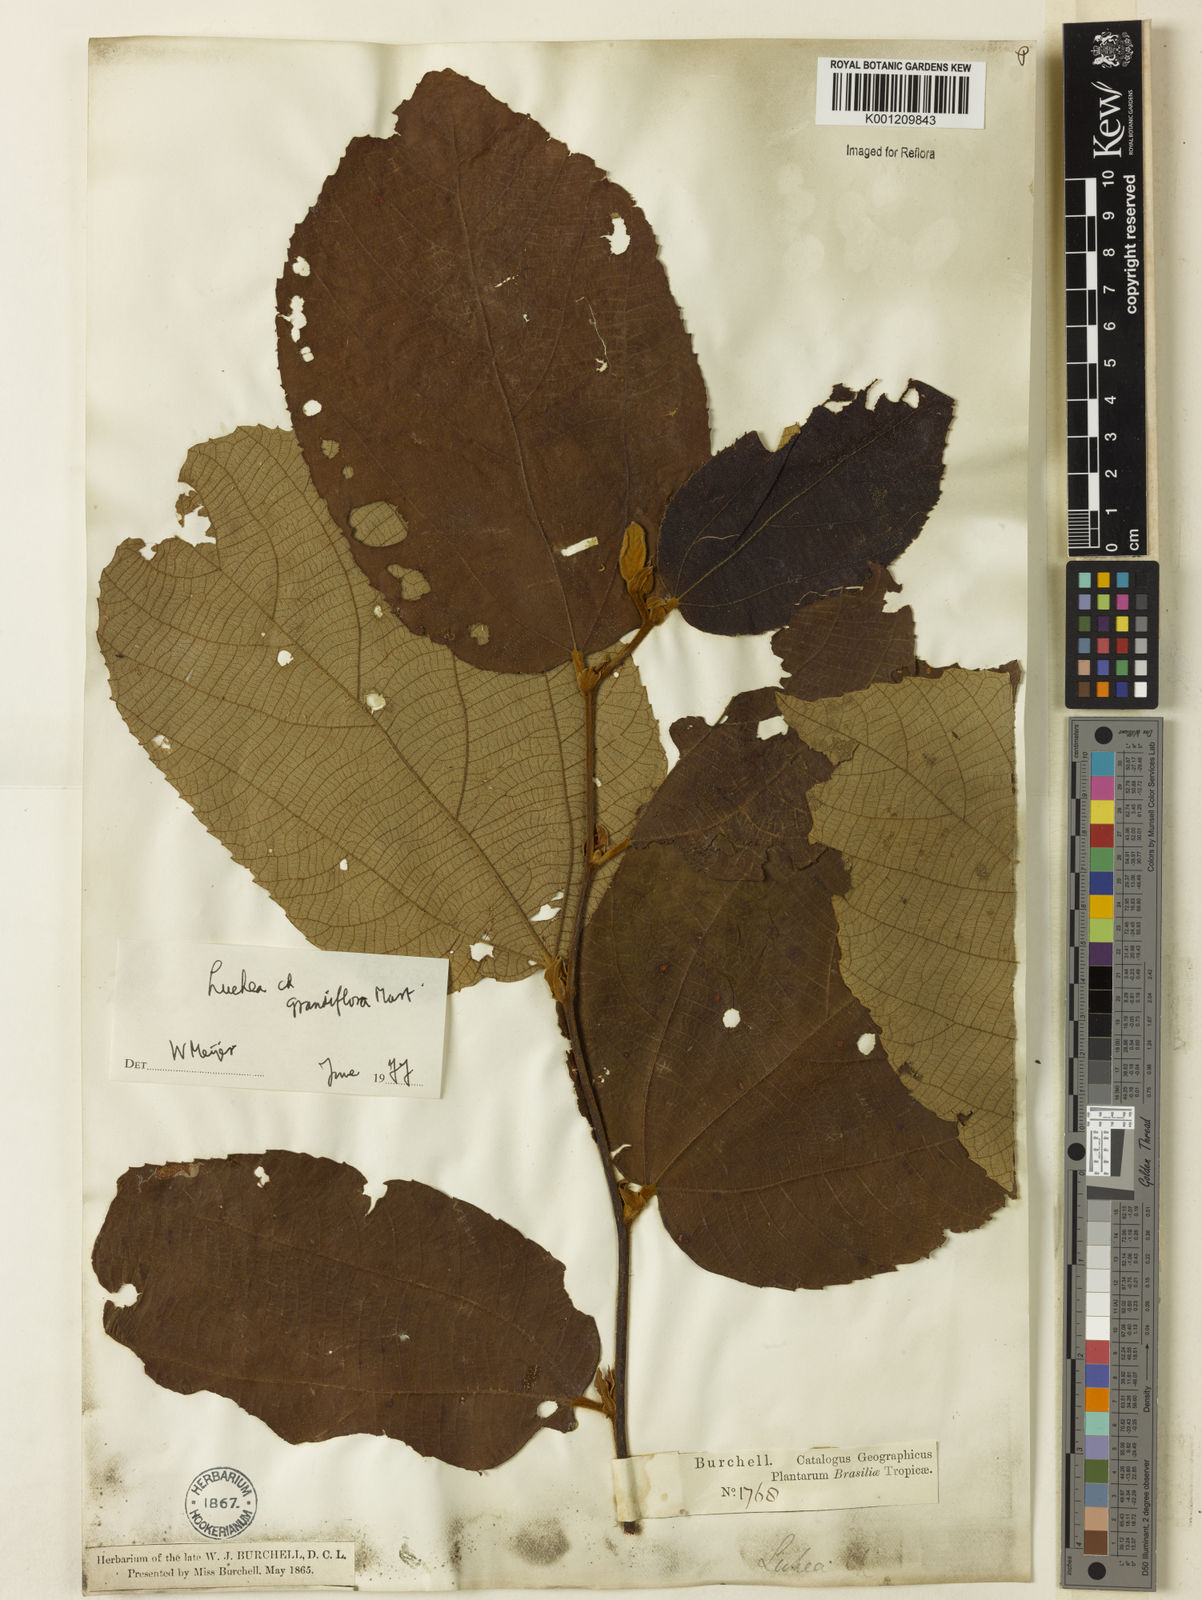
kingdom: Plantae
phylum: Tracheophyta
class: Magnoliopsida
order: Malvales
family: Malvaceae
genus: Luehea
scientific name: Luehea grandiflora
